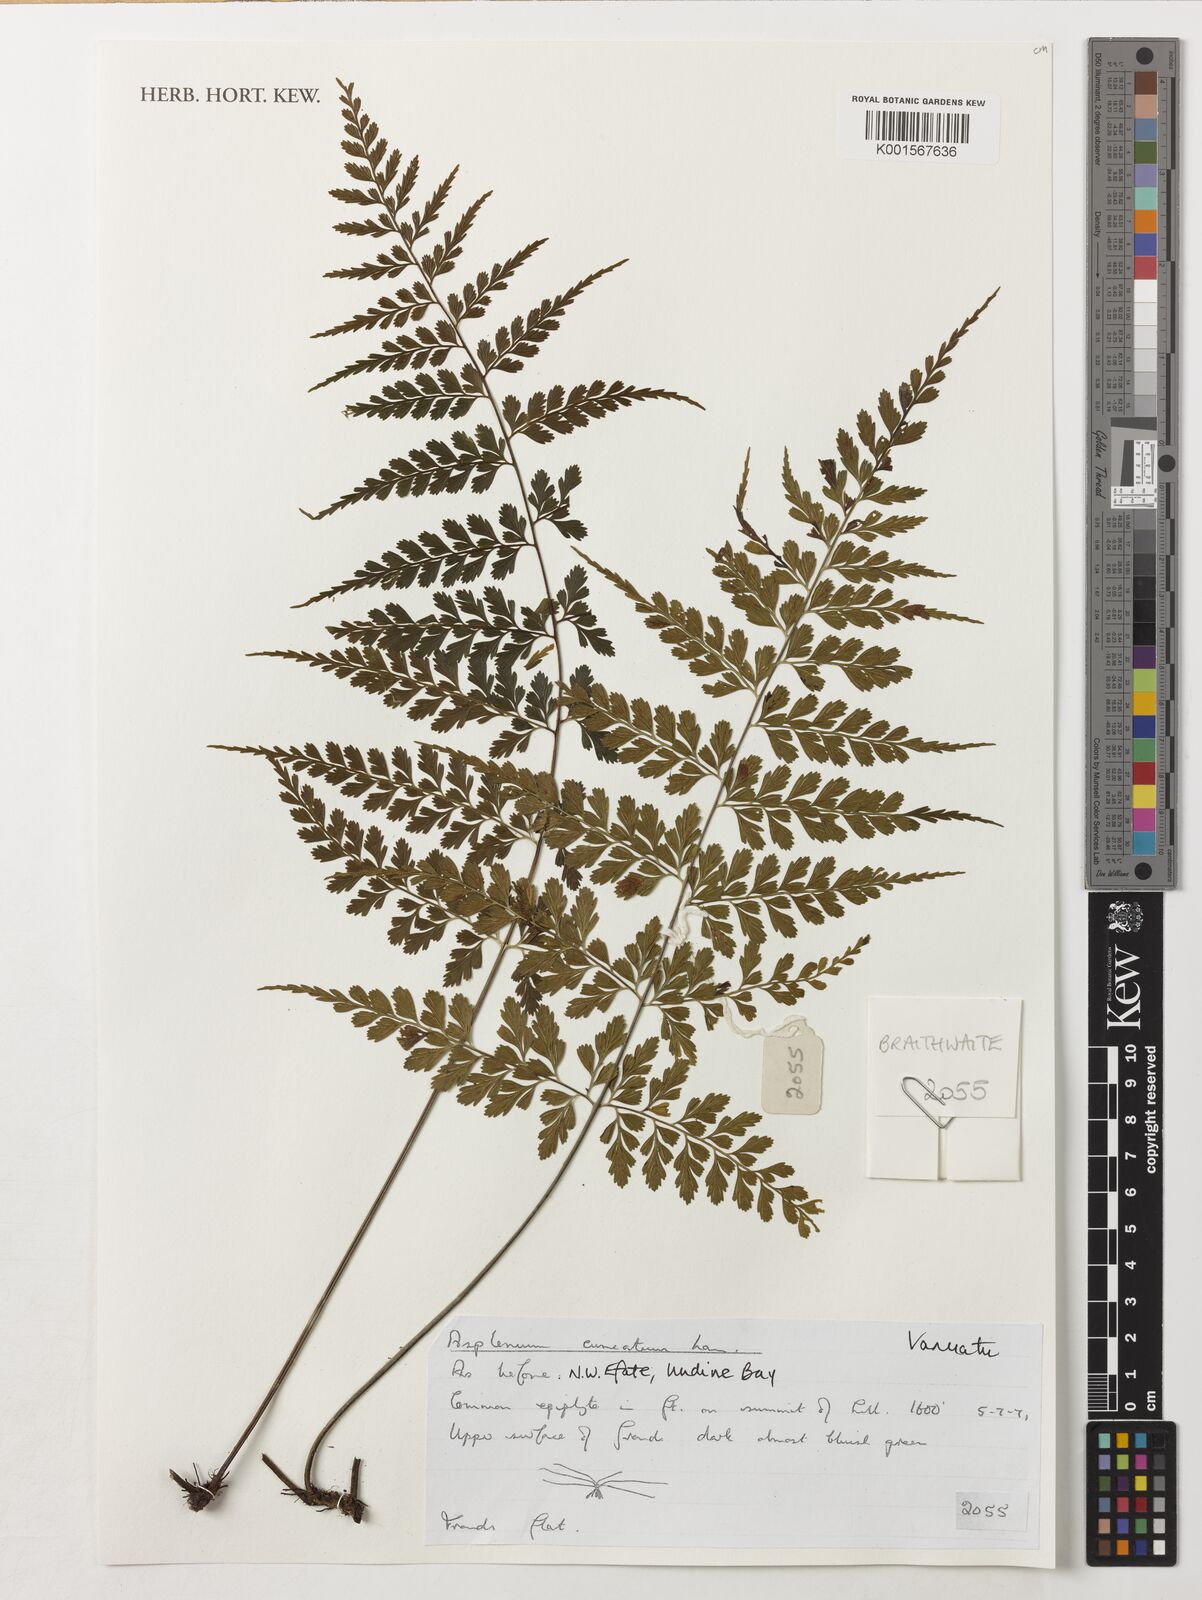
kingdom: Plantae
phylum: Tracheophyta
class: Polypodiopsida
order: Polypodiales
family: Aspleniaceae
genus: Asplenium
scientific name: Asplenium cuneatum
